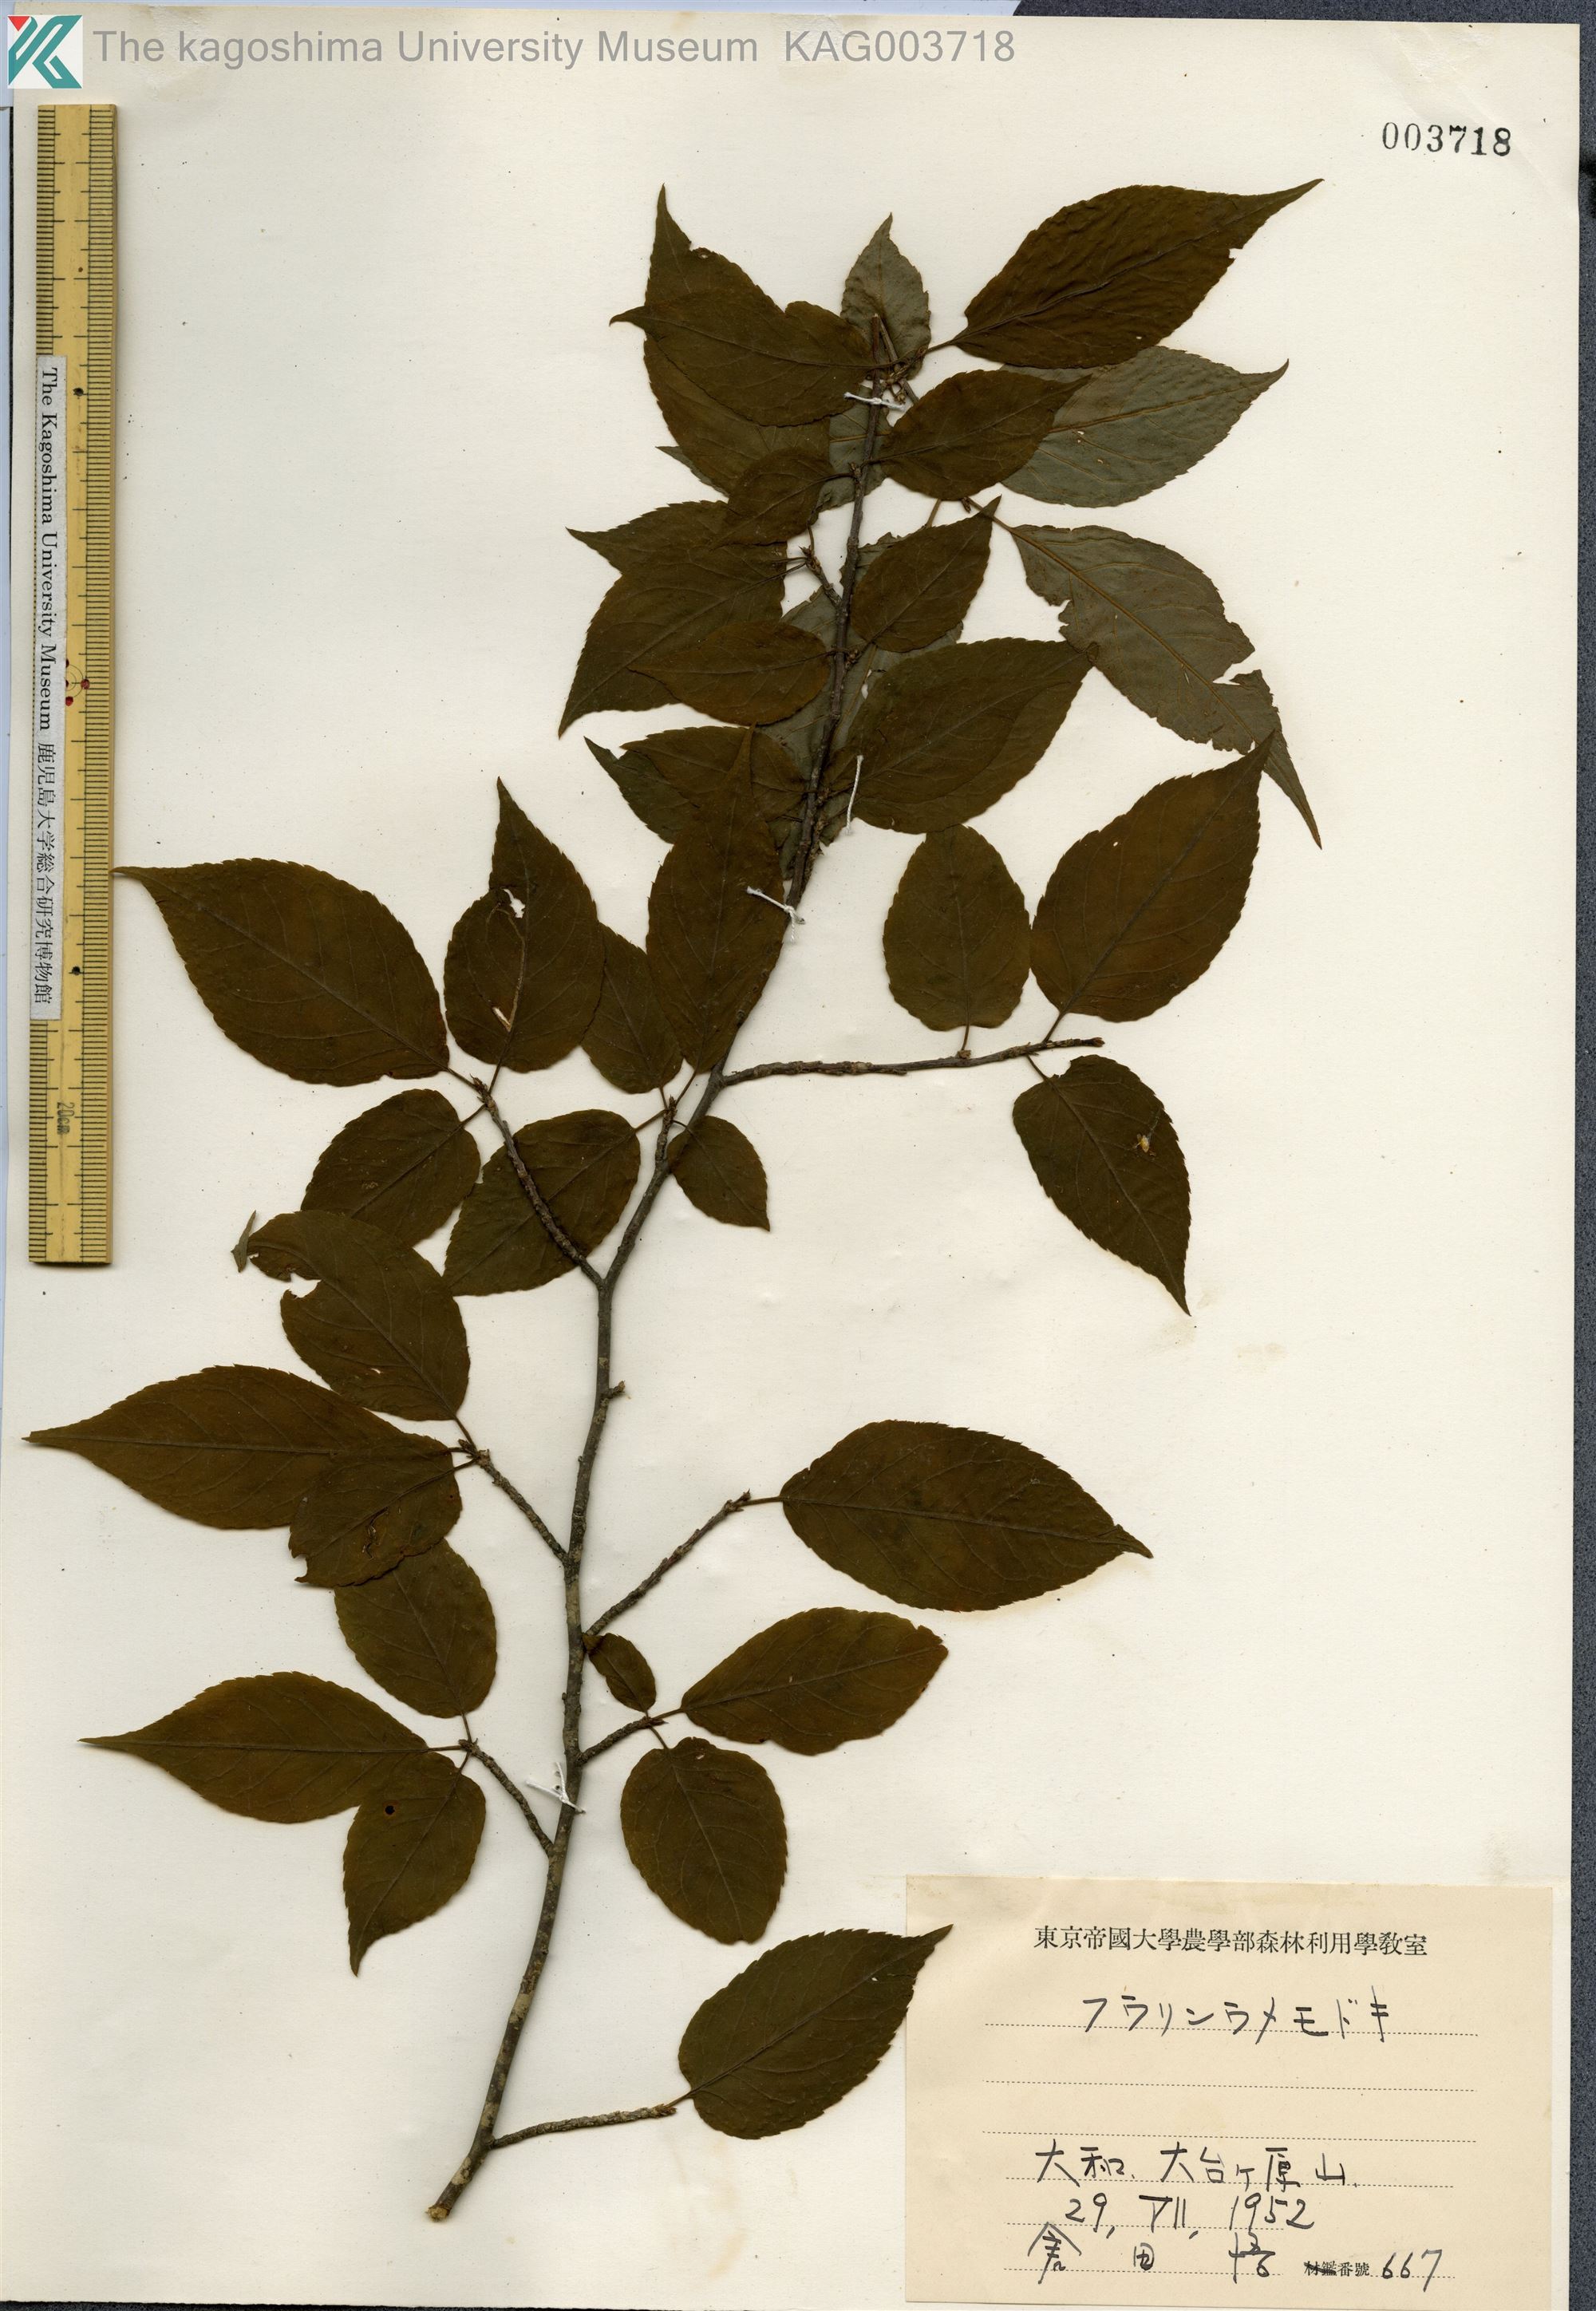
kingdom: Plantae
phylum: Tracheophyta
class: Magnoliopsida
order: Aquifoliales
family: Aquifoliaceae
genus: Ilex
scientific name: Ilex geniculata
